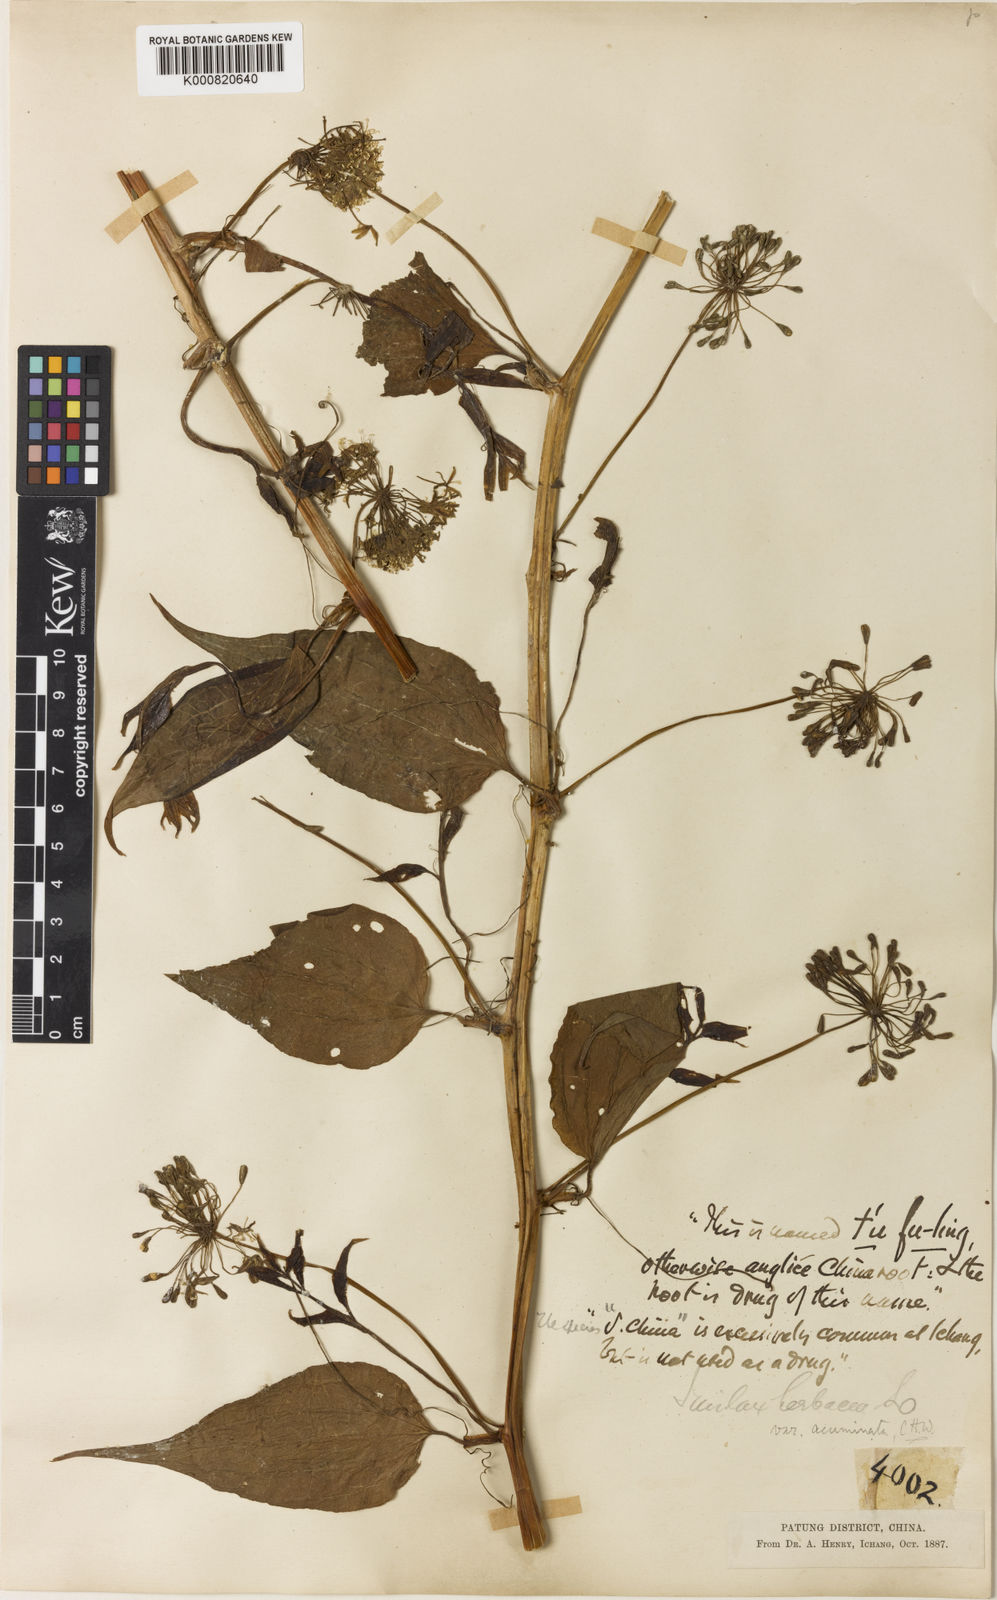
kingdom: Plantae
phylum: Tracheophyta
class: Liliopsida
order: Liliales
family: Smilacaceae
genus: Smilax
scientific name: Smilax riparia
